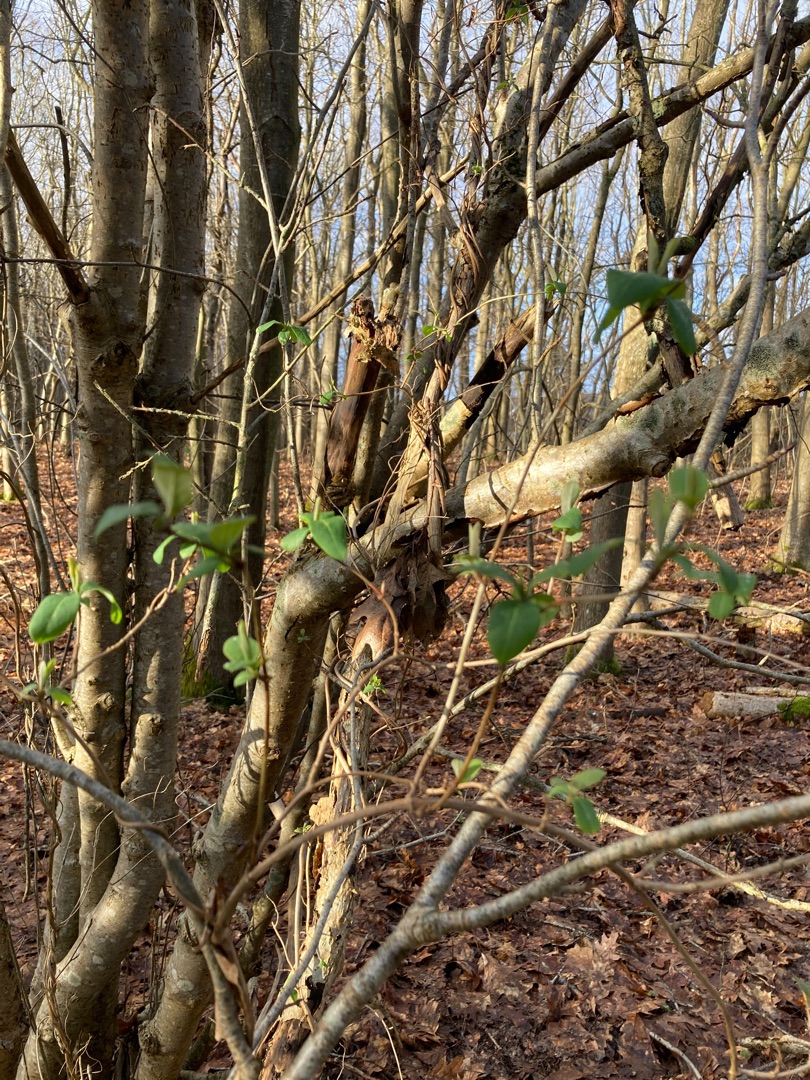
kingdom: Plantae
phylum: Tracheophyta
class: Magnoliopsida
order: Dipsacales
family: Caprifoliaceae
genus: Lonicera
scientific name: Lonicera periclymenum
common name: Almindelig gedeblad
